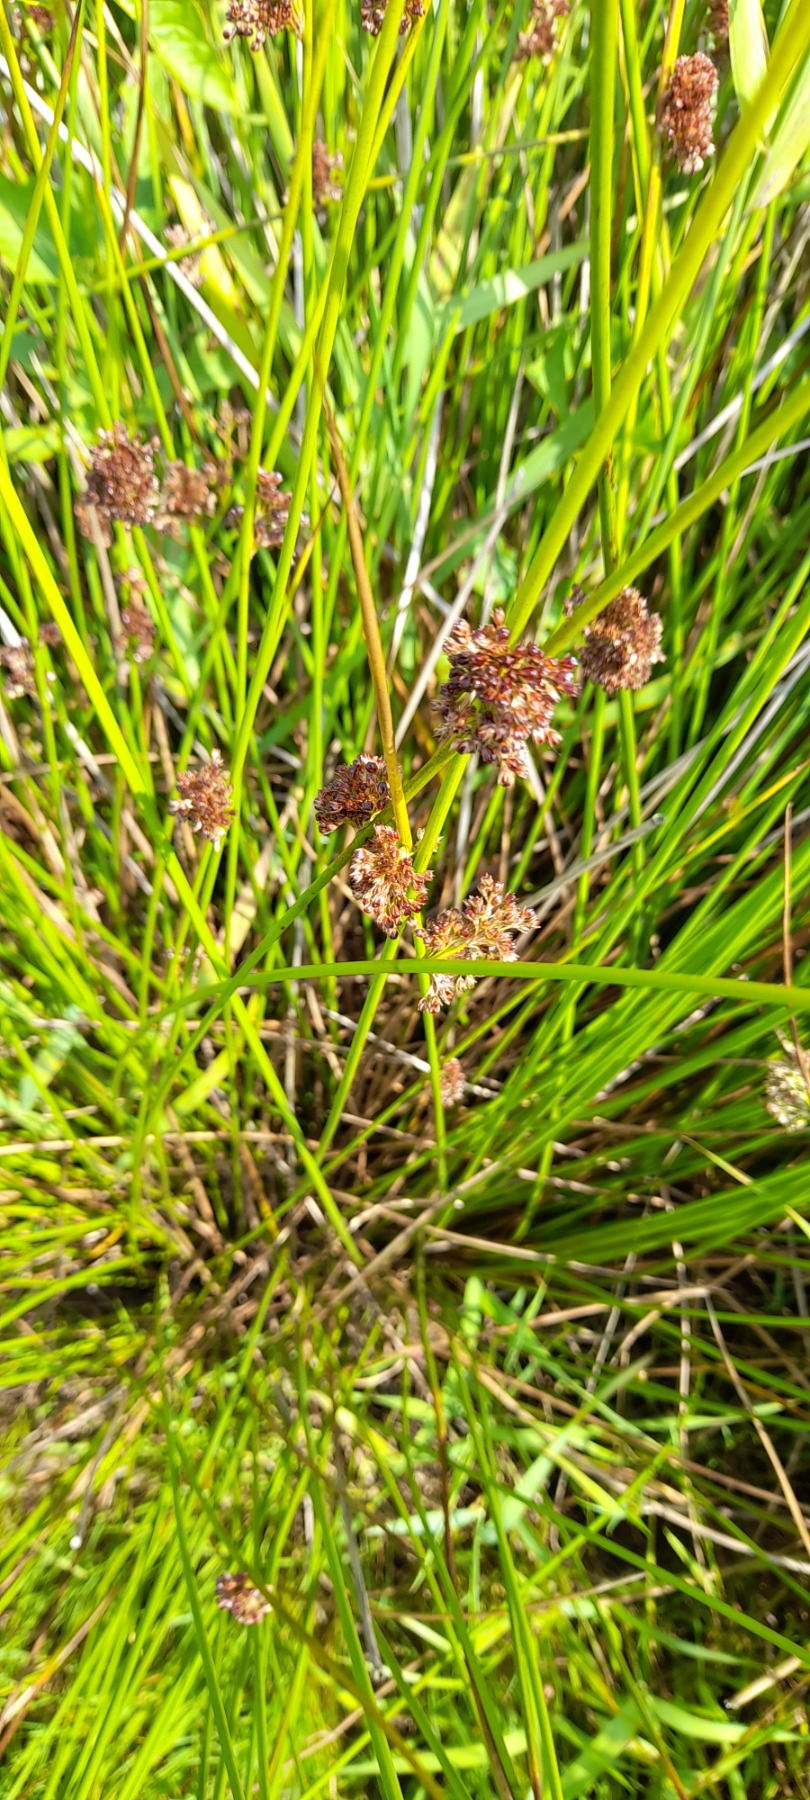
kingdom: Plantae
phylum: Tracheophyta
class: Liliopsida
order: Poales
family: Juncaceae
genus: Juncus
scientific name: Juncus effusus
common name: Lyse-siv
